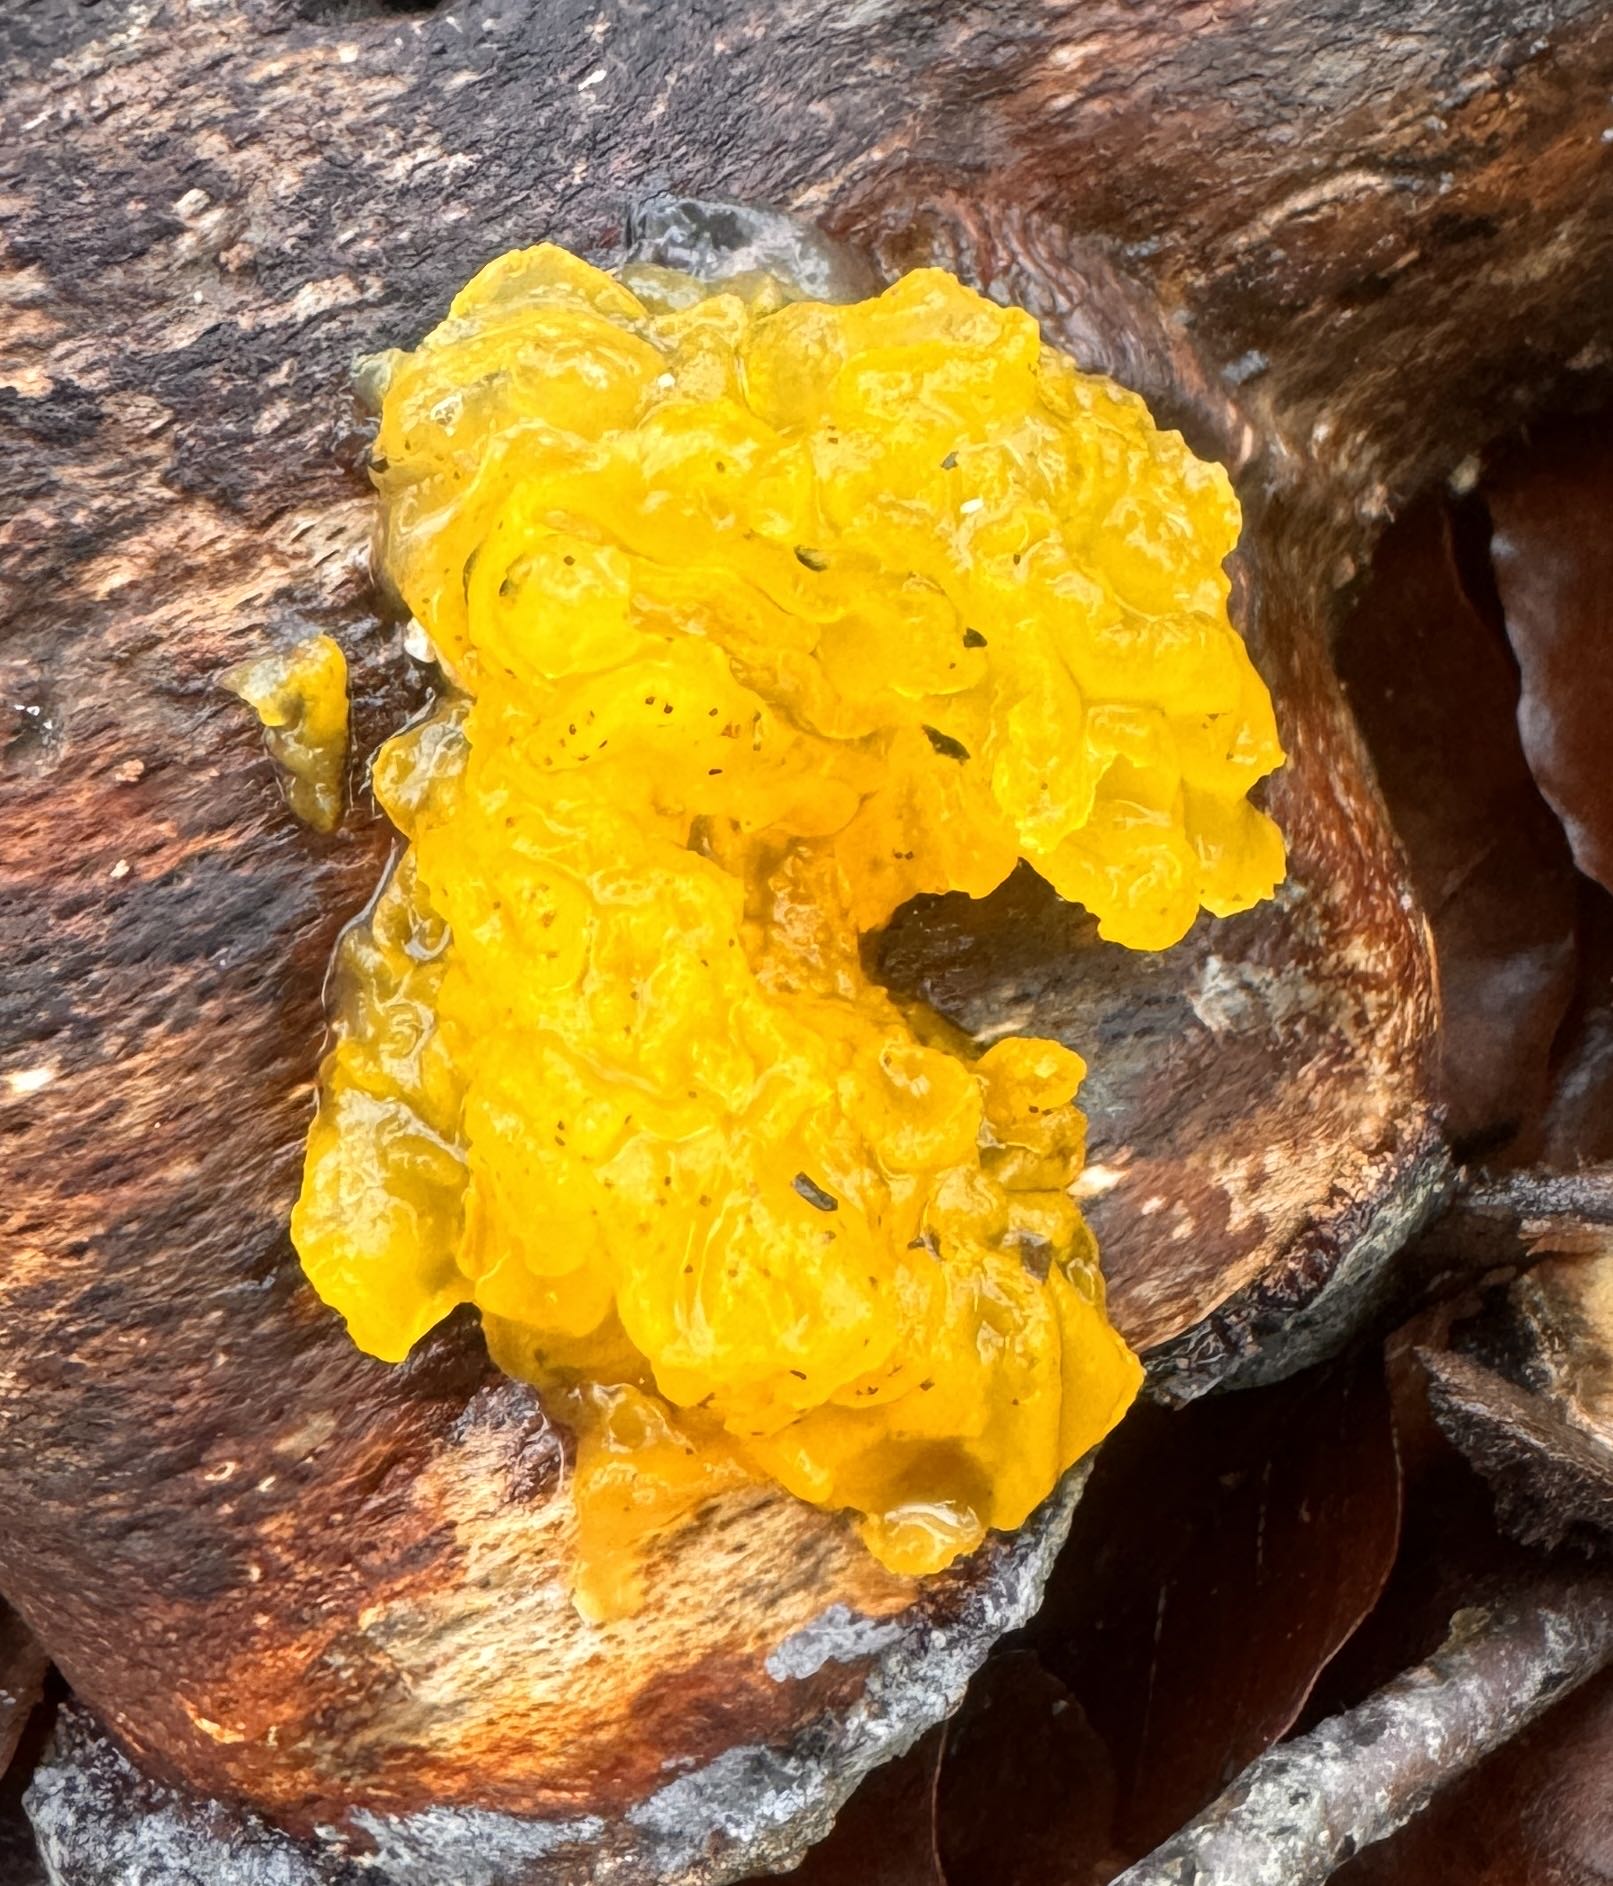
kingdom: Fungi
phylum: Basidiomycota
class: Tremellomycetes
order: Tremellales
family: Tremellaceae
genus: Tremella
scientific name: Tremella mesenterica
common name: gul bævresvamp
